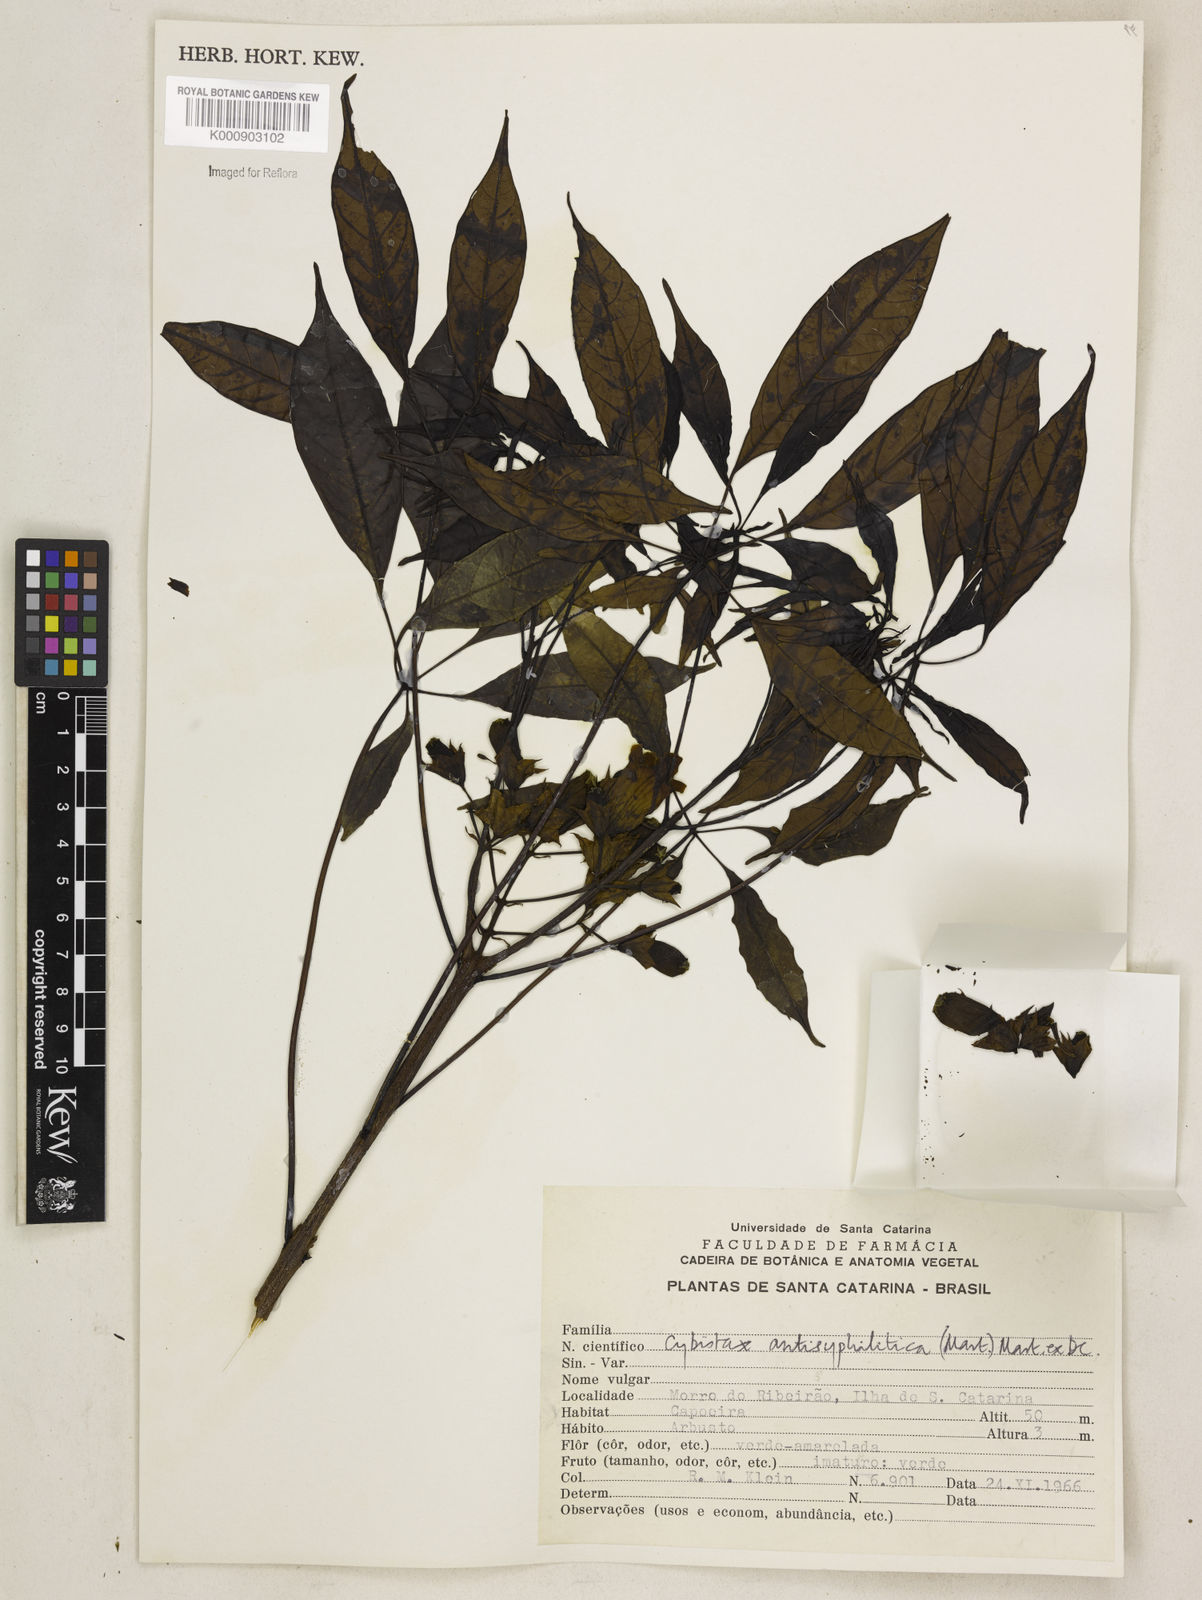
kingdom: Plantae
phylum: Tracheophyta
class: Magnoliopsida
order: Lamiales
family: Bignoniaceae
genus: Cybistax
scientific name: Cybistax antisyphilitica
